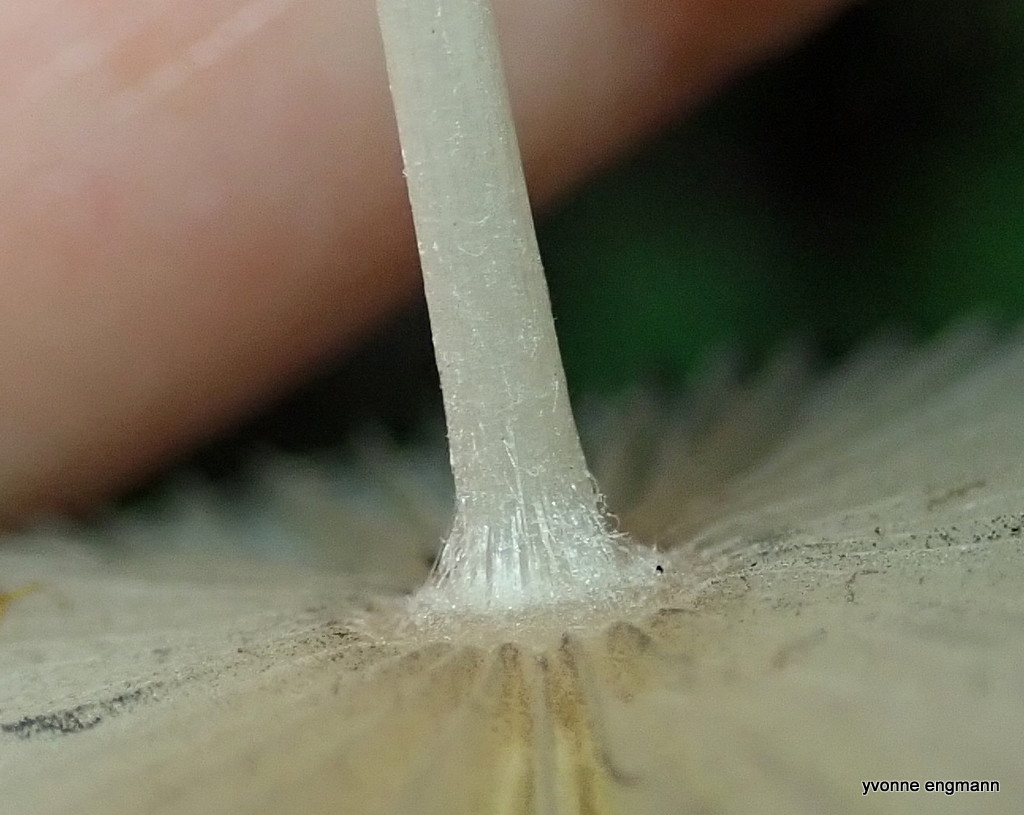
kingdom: Fungi
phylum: Basidiomycota
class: Agaricomycetes
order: Agaricales
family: Psathyrellaceae
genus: Parasola
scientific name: Parasola
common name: hjulhat
